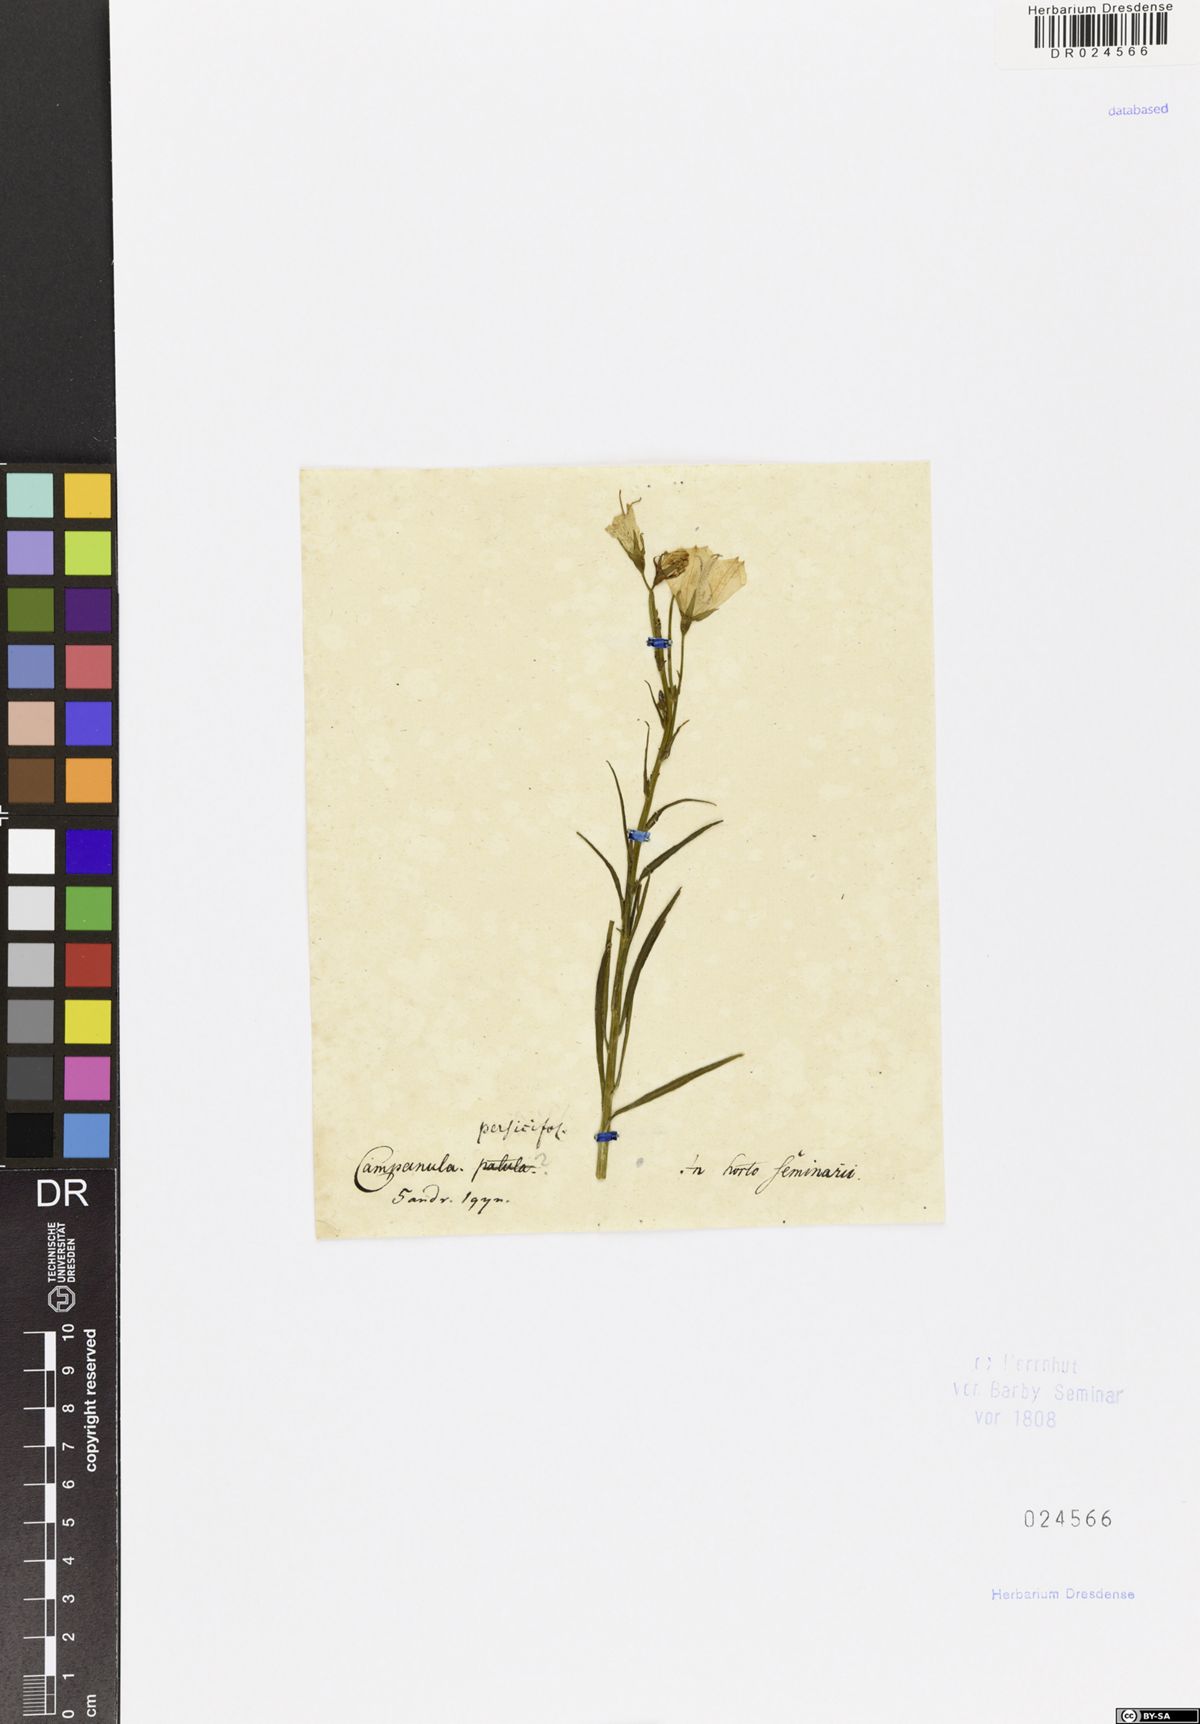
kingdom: Plantae
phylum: Tracheophyta
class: Magnoliopsida
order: Asterales
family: Campanulaceae
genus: Campanula
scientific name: Campanula persicifolia
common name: Peach-leaved bellflower
